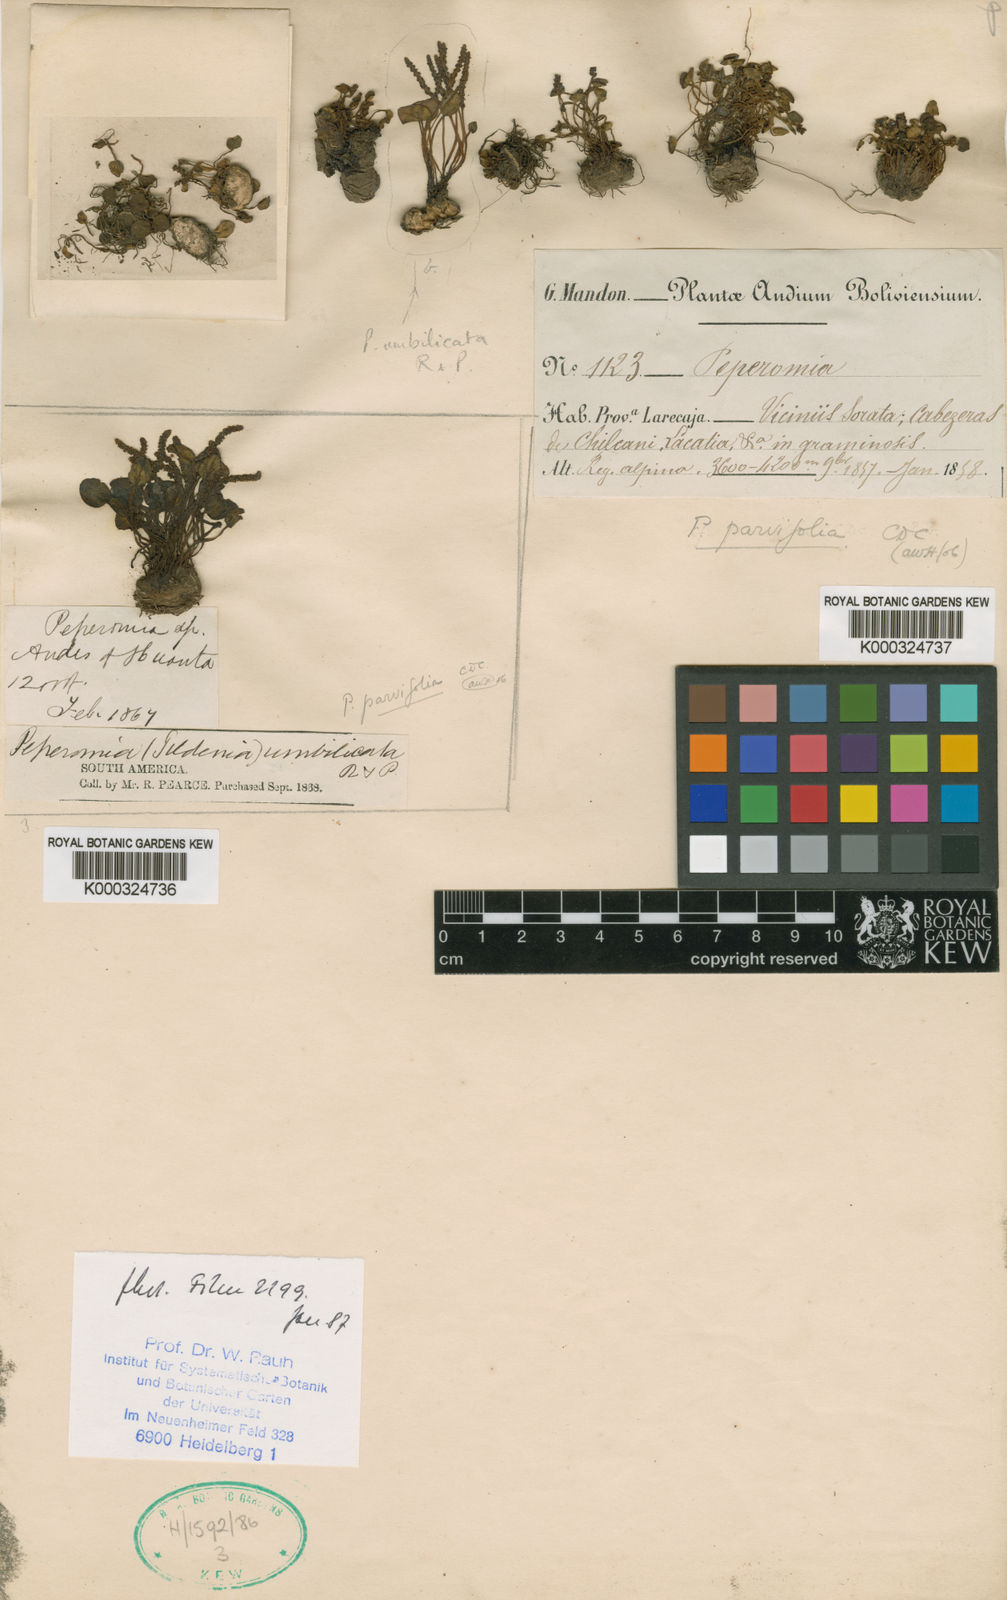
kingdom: Plantae
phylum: Tracheophyta
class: Magnoliopsida
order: Piperales
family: Piperaceae
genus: Peperomia
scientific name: Peperomia umbilicata
